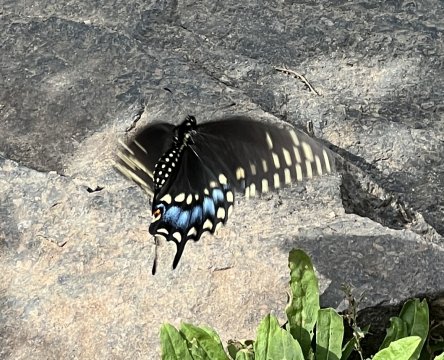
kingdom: Animalia
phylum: Arthropoda
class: Insecta
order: Lepidoptera
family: Papilionidae
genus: Papilio
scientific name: Papilio polyxenes
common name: Black Swallowtail
